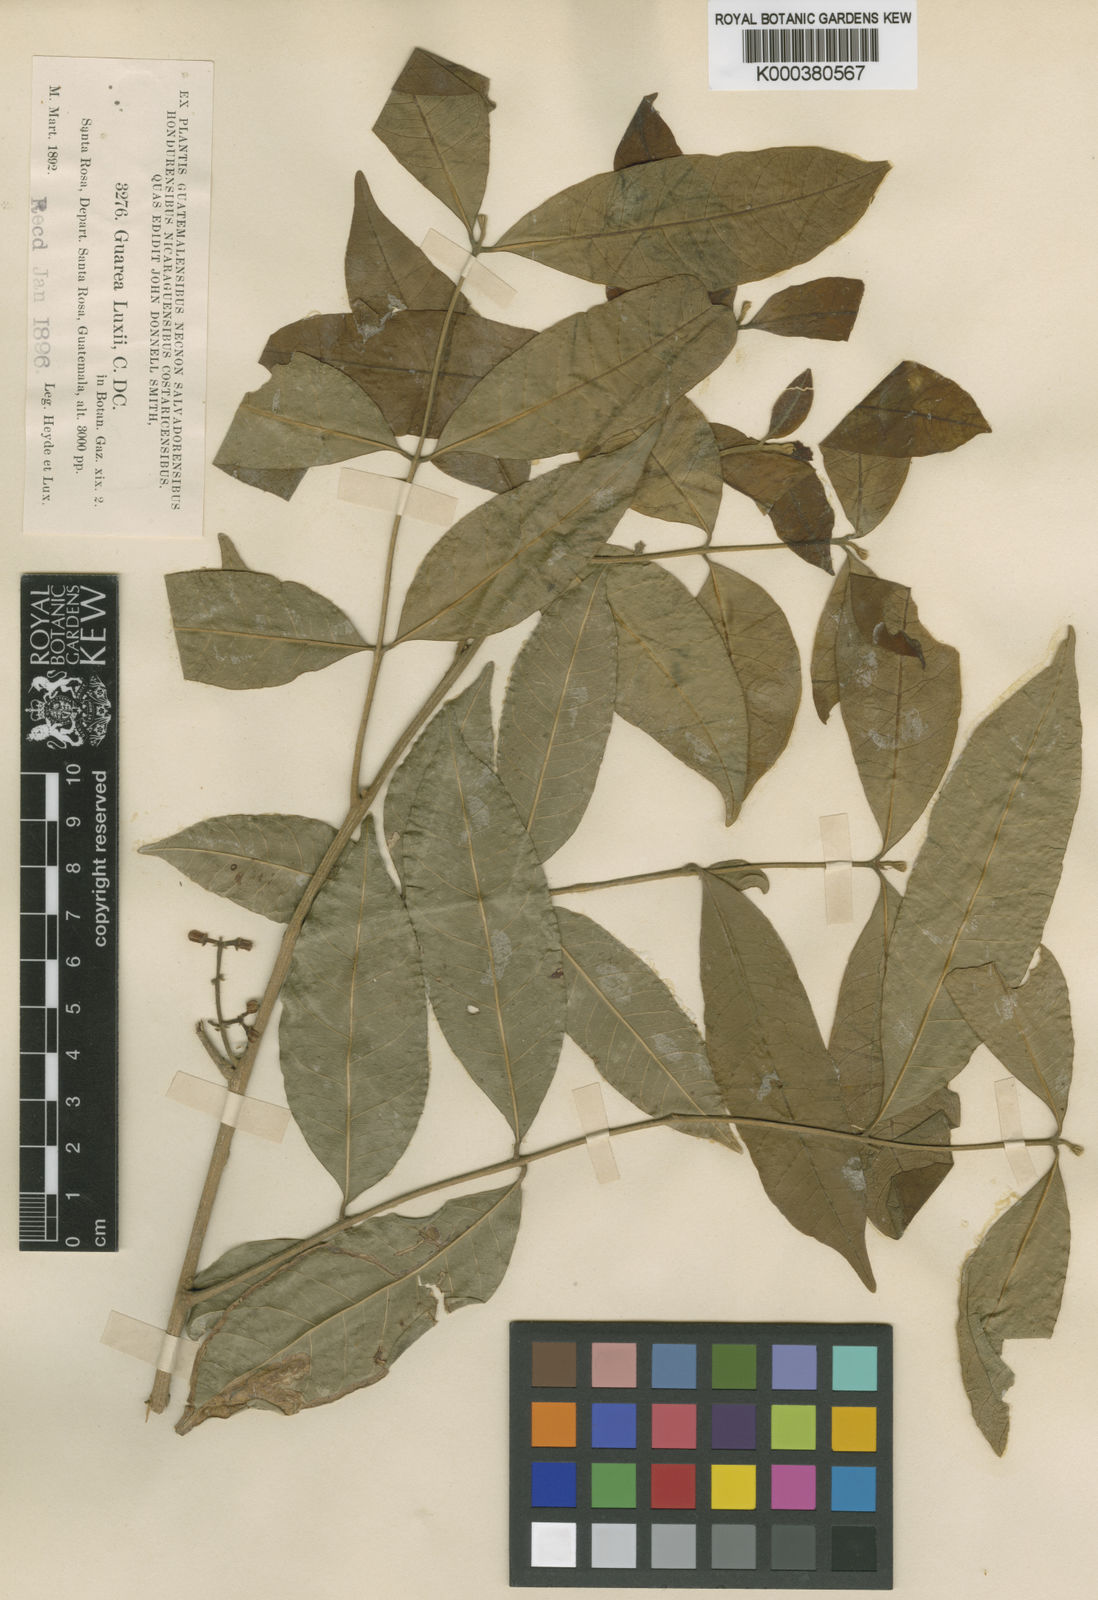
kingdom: Plantae
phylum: Tracheophyta
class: Magnoliopsida
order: Sapindales
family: Meliaceae
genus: Guarea
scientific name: Guarea glabra
